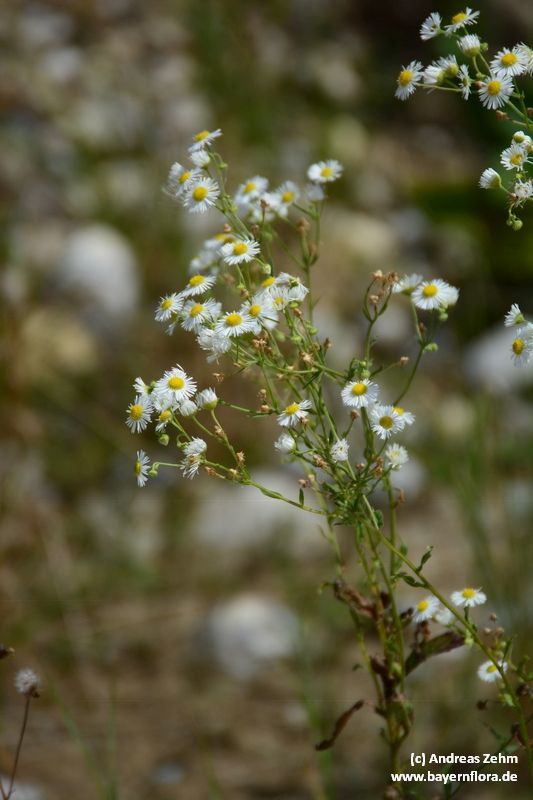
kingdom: Plantae
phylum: Tracheophyta
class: Magnoliopsida
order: Asterales
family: Asteraceae
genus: Erigeron
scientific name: Erigeron annuus
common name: Tall fleabane
